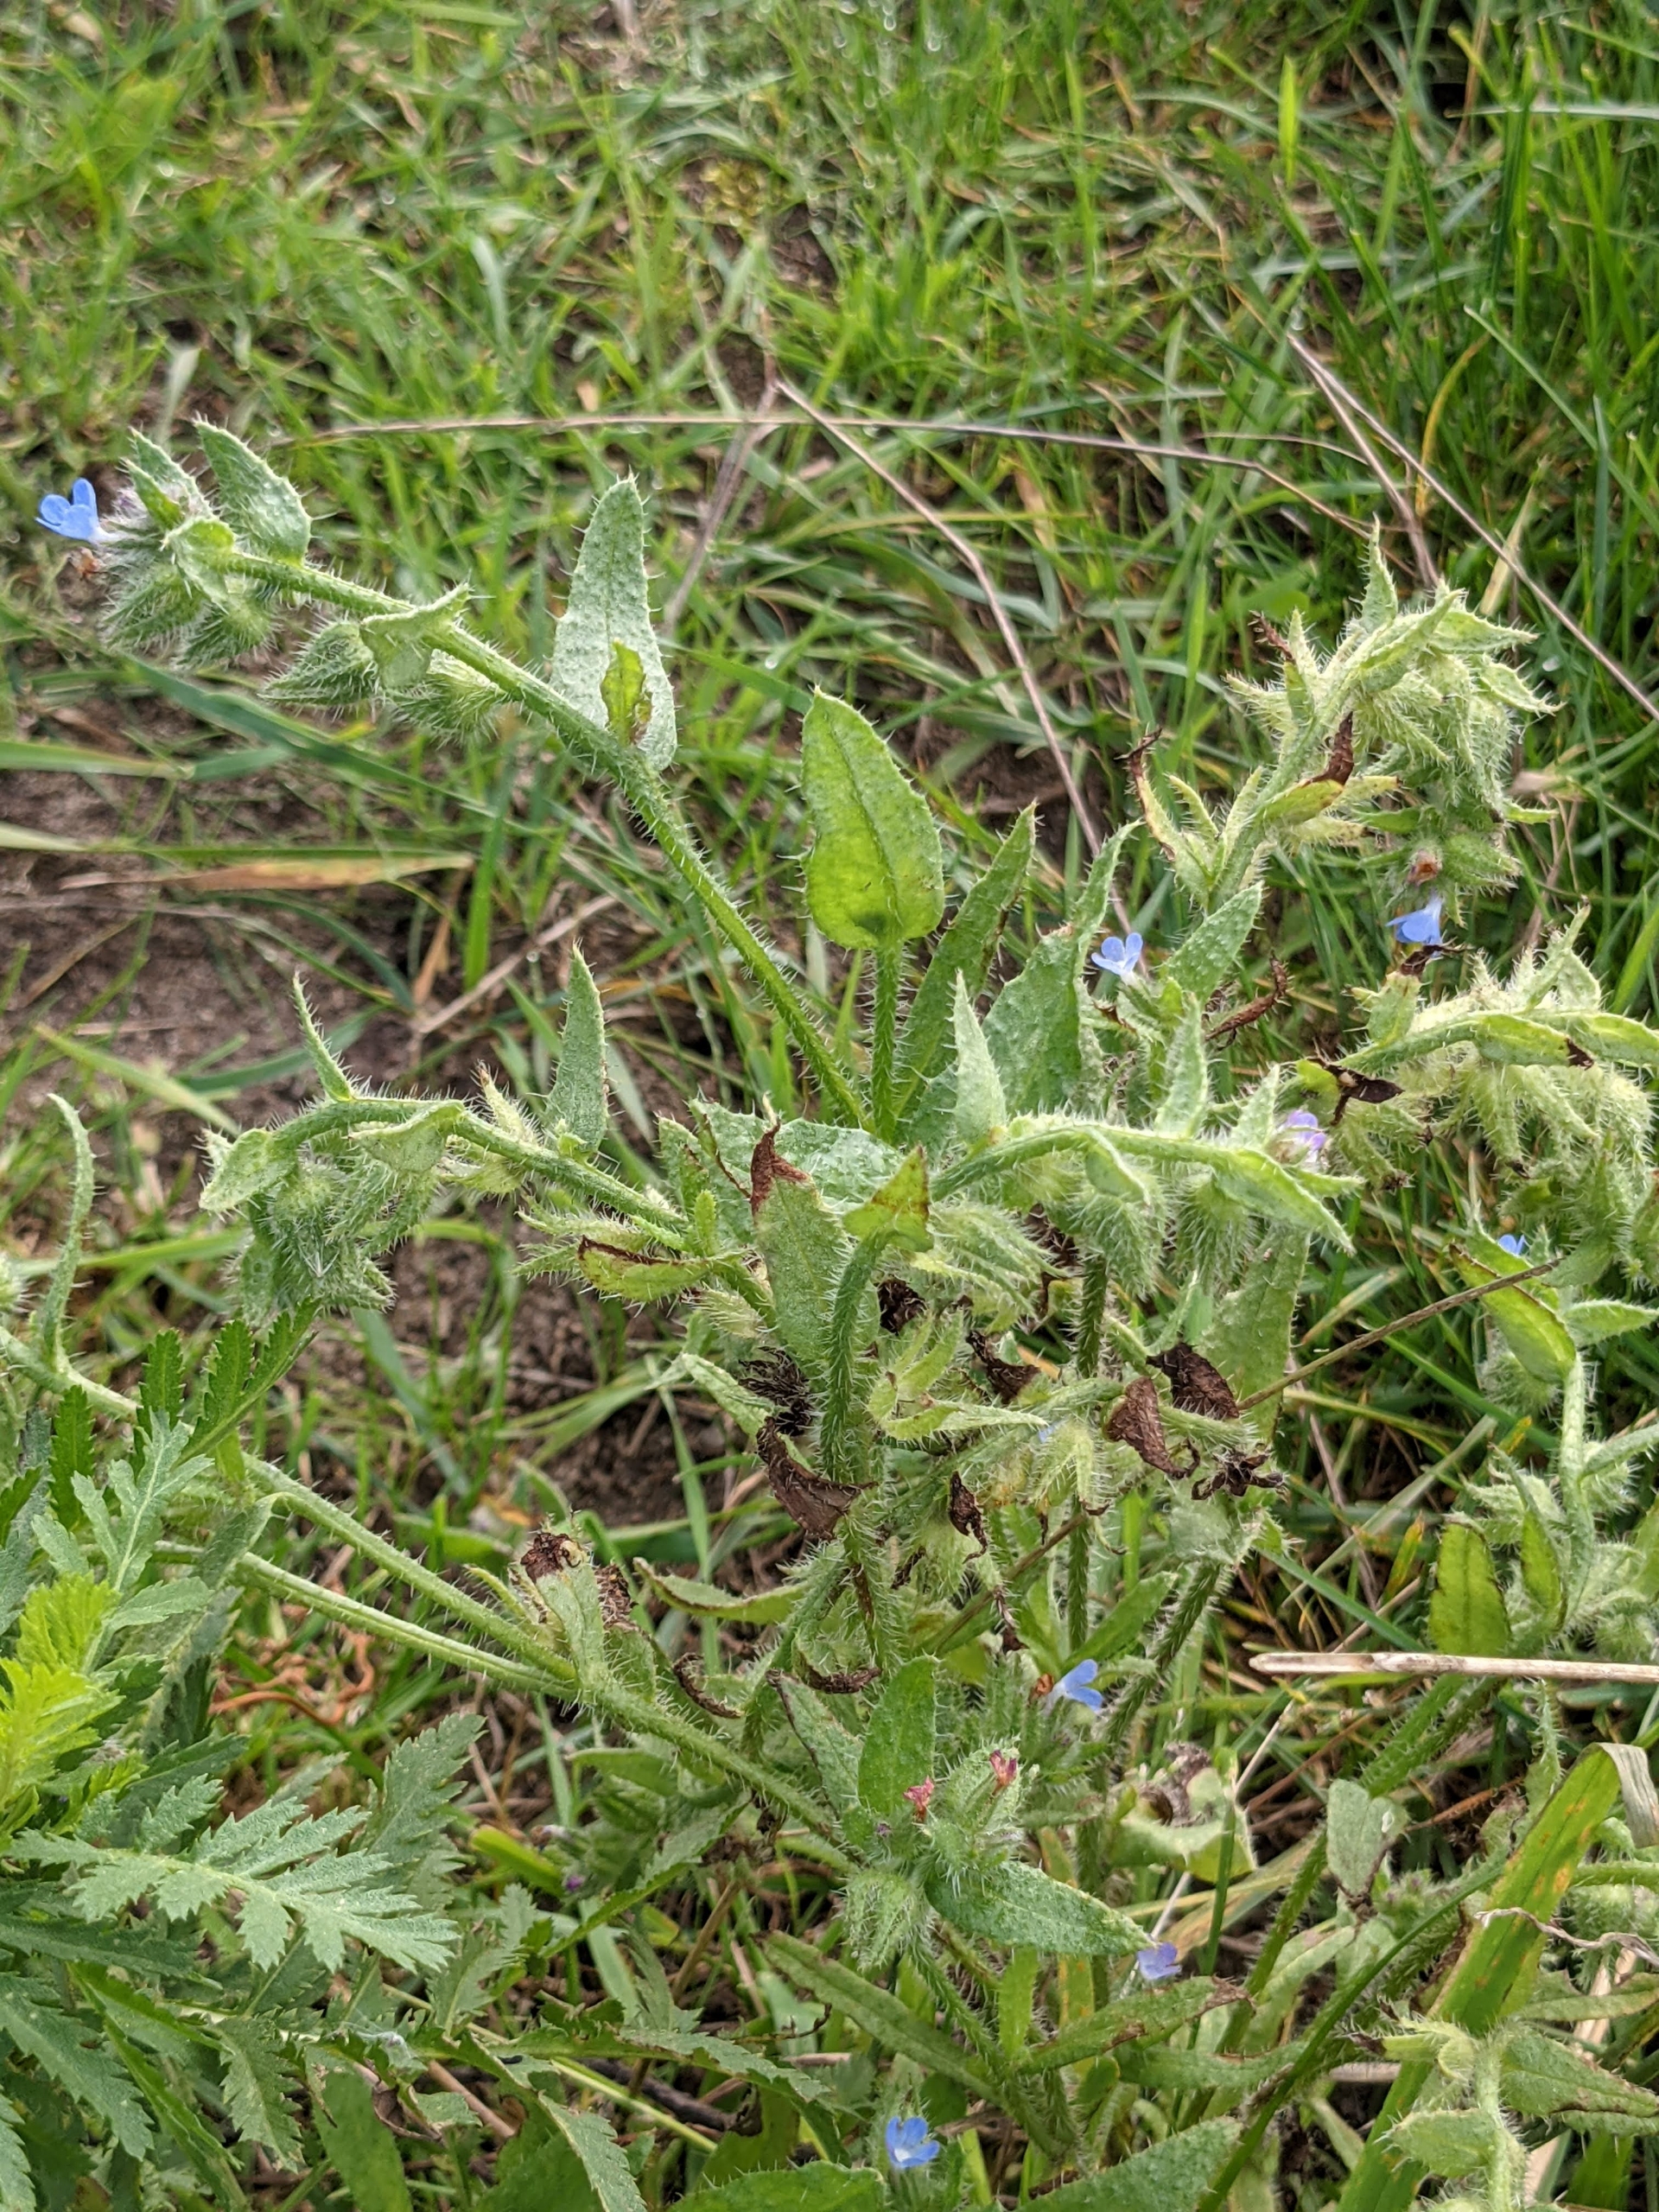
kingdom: Plantae
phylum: Tracheophyta
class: Magnoliopsida
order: Boraginales
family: Boraginaceae
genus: Lycopsis
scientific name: Lycopsis arvensis
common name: Krumhals
